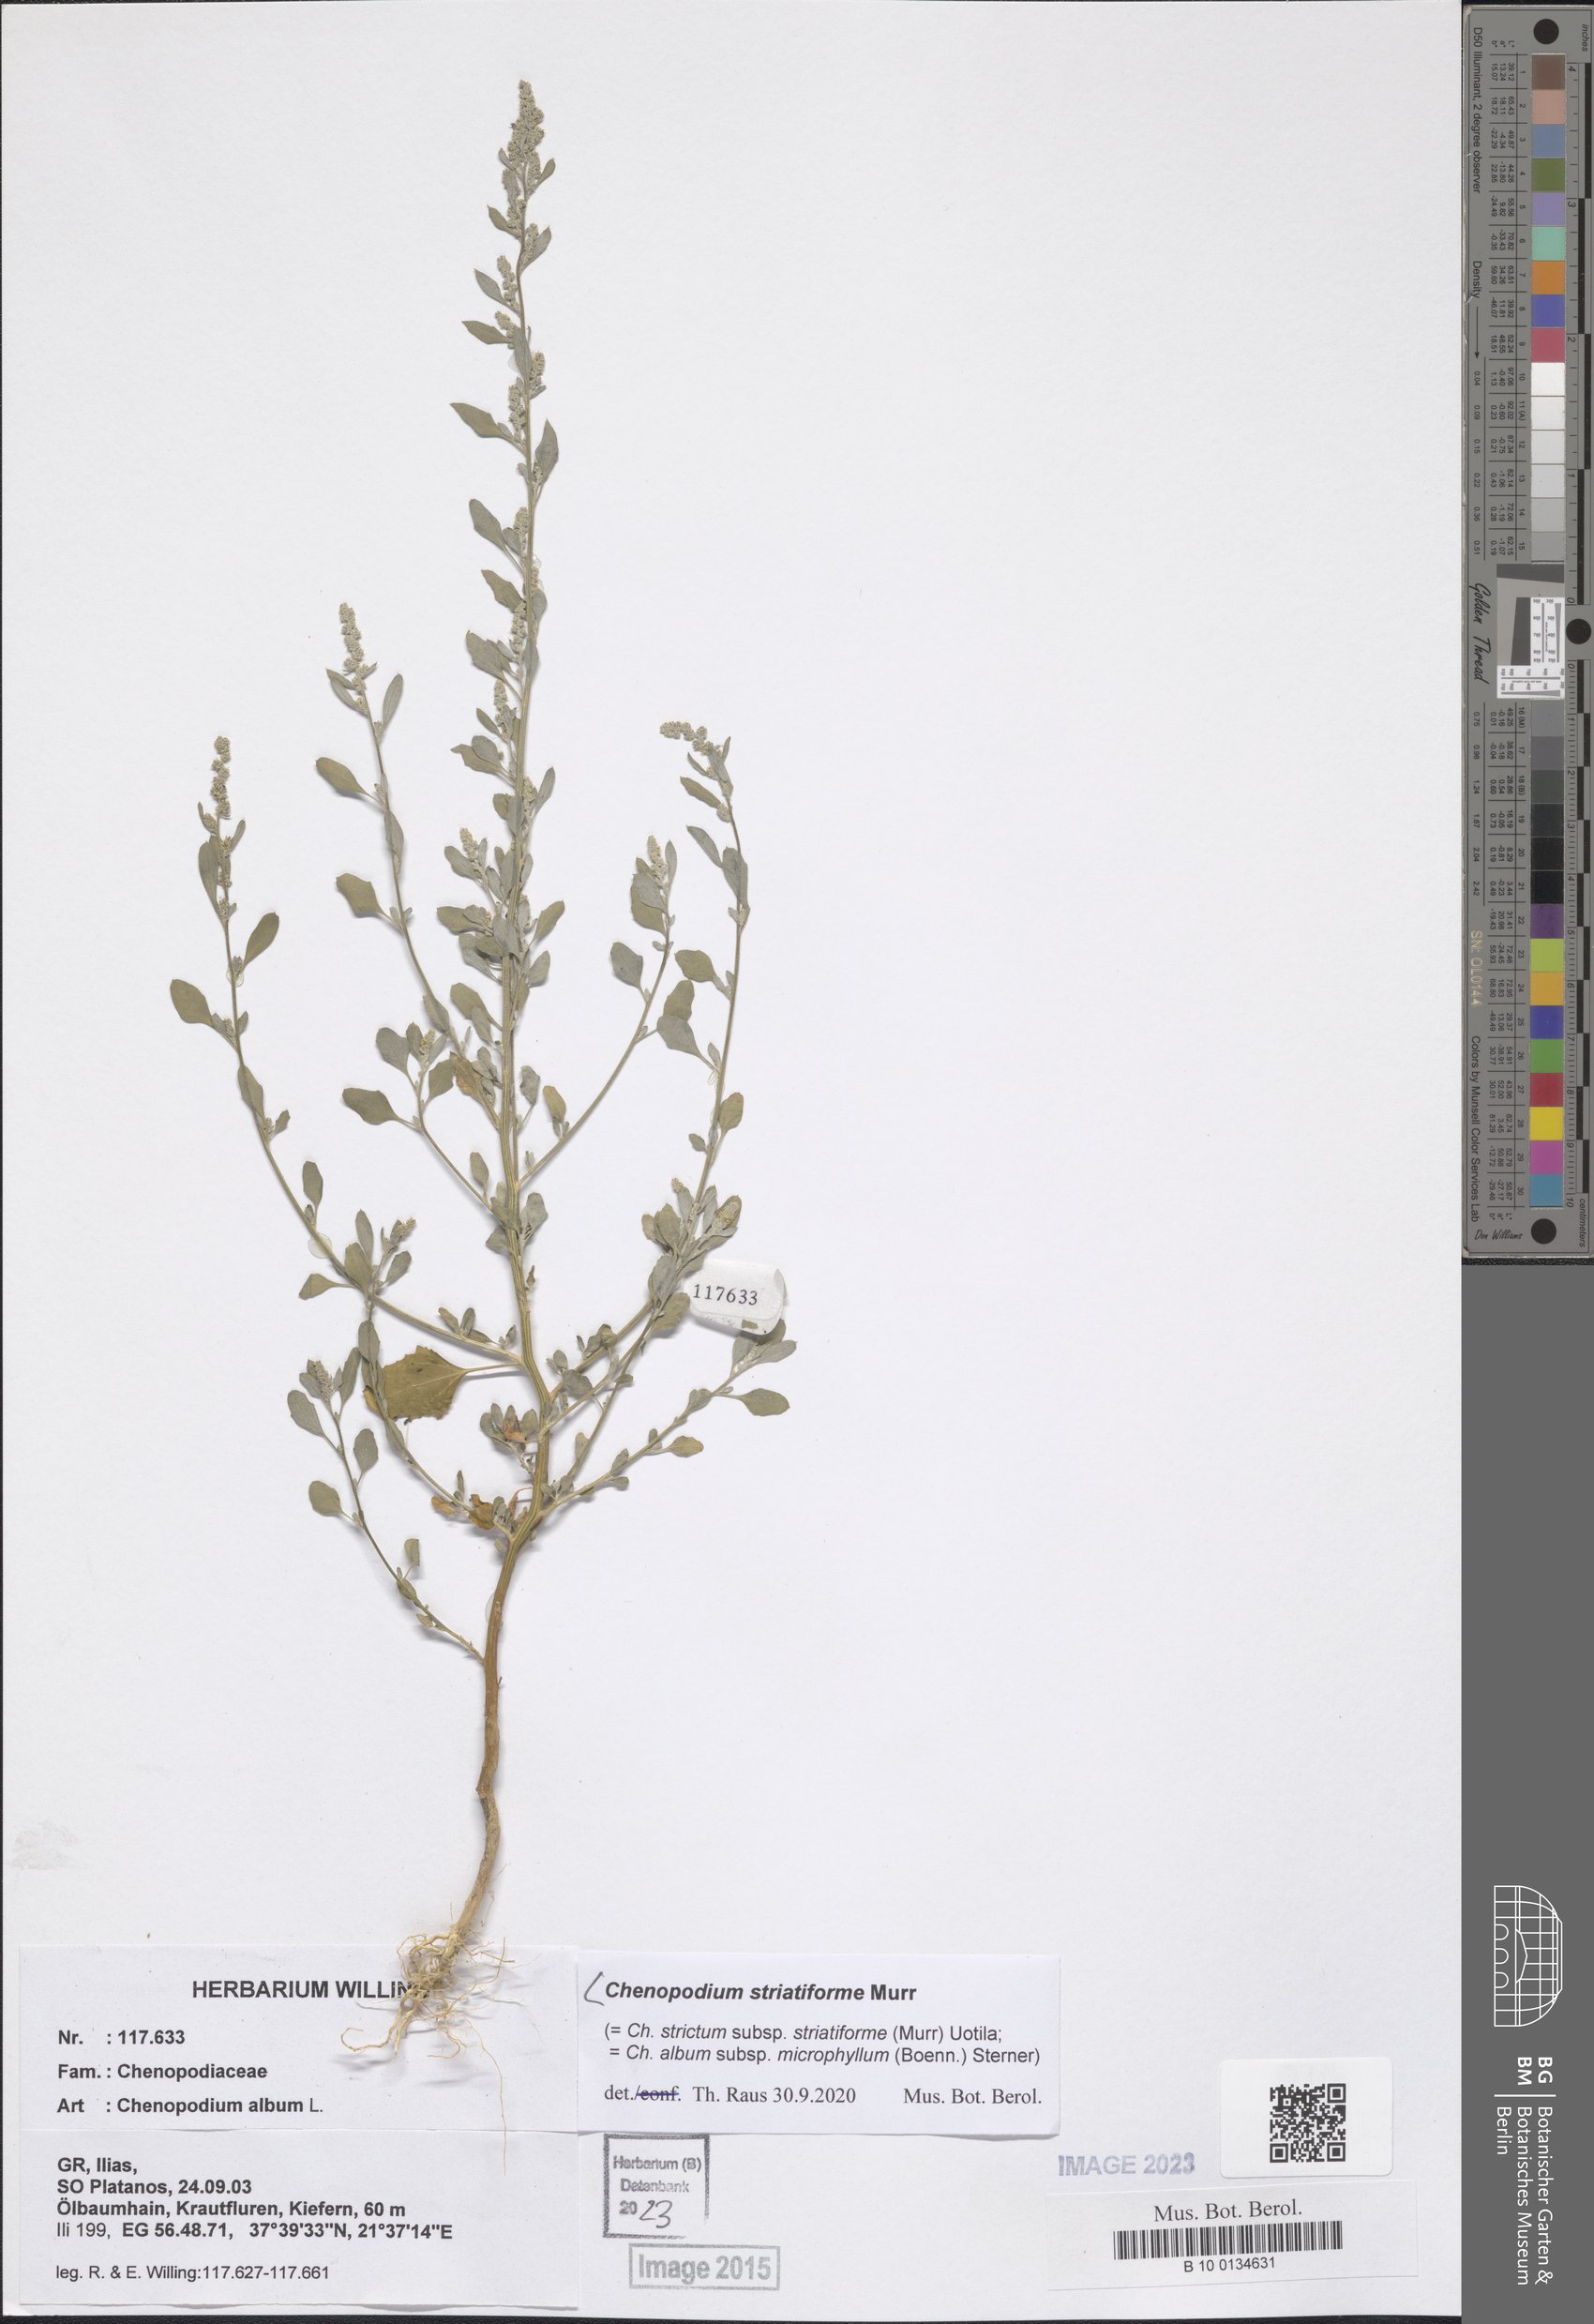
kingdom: Plantae
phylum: Tracheophyta
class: Magnoliopsida
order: Caryophyllales
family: Amaranthaceae
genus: Chenopodium
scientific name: Chenopodium striatiforme
